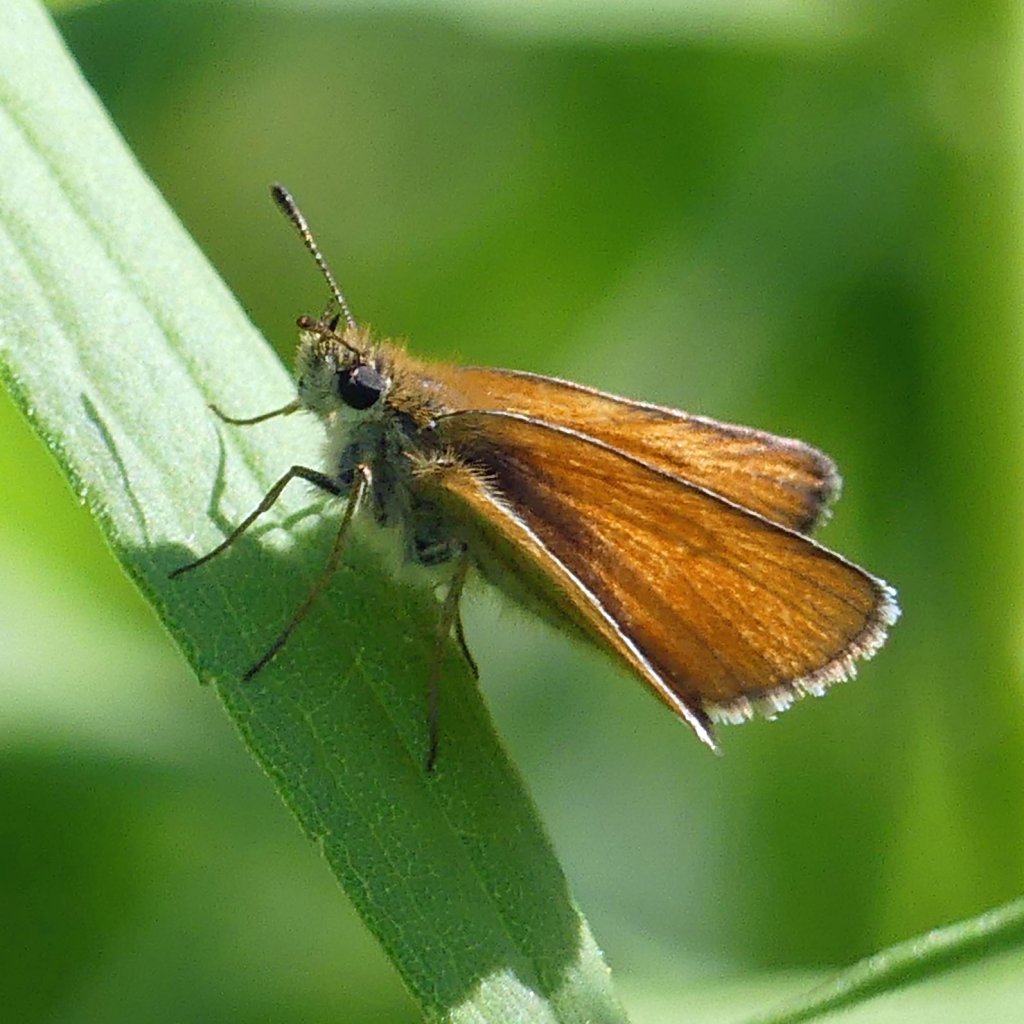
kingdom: Animalia
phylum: Arthropoda
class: Insecta
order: Lepidoptera
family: Hesperiidae
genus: Thymelicus
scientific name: Thymelicus lineola
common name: European Skipper
